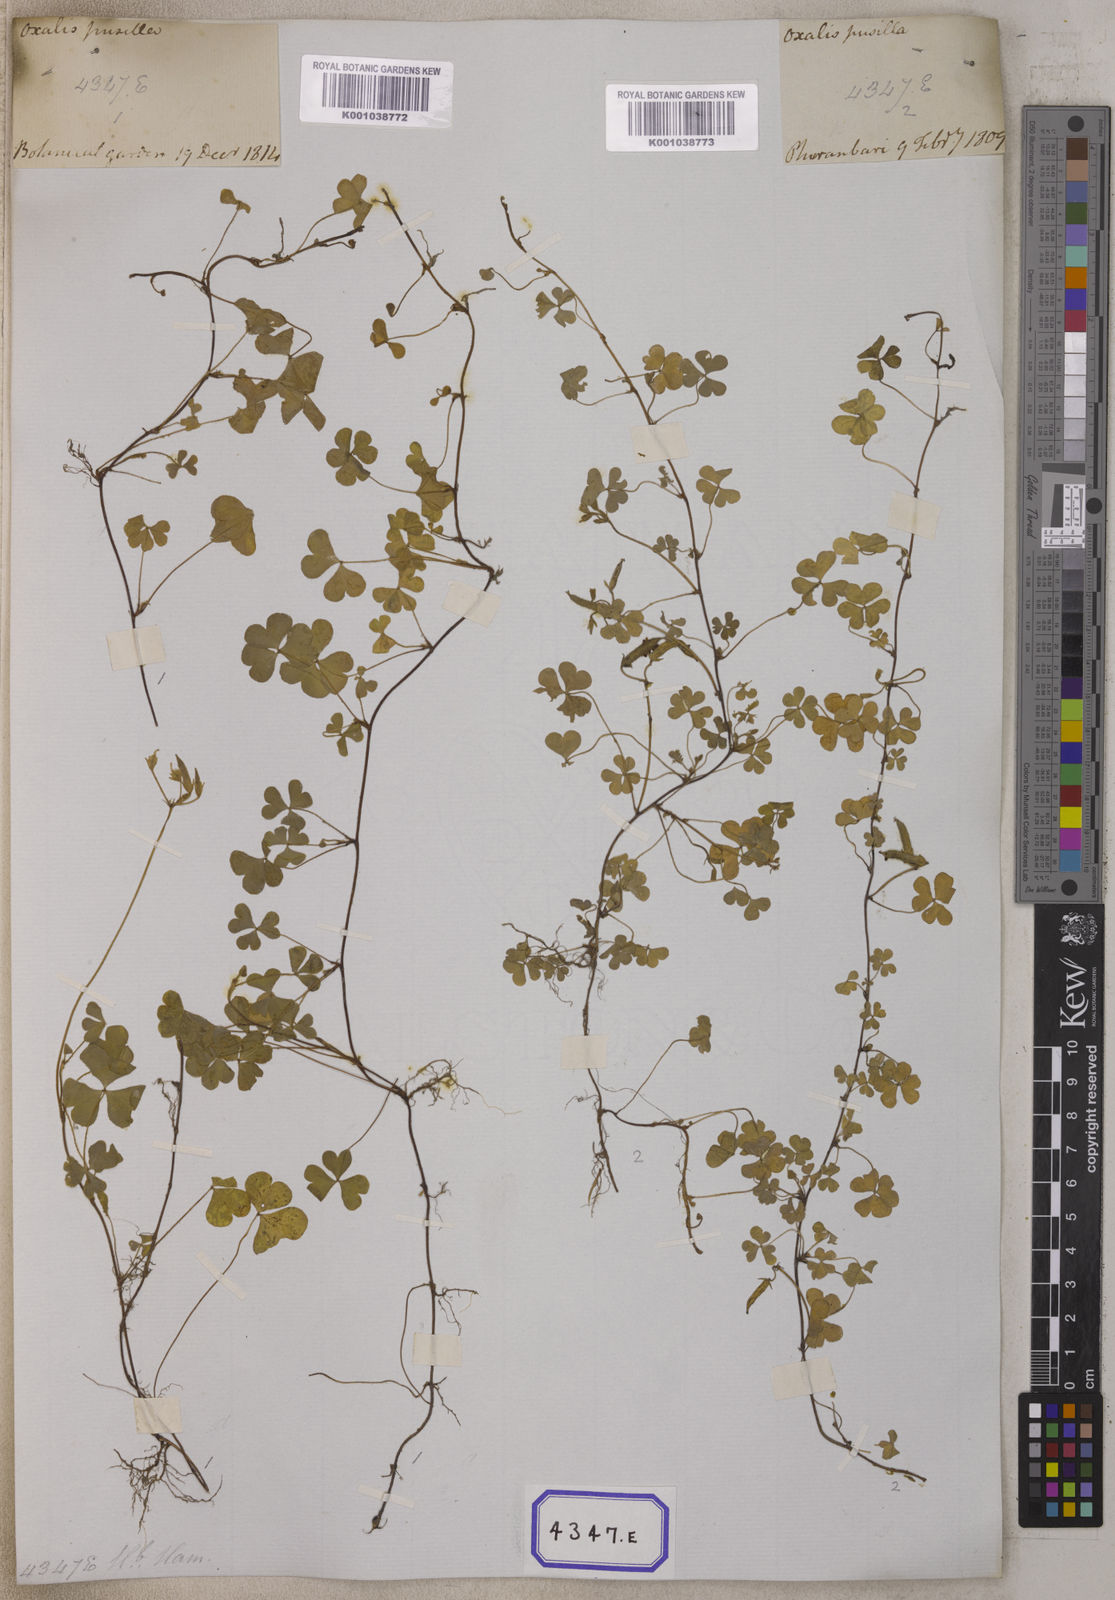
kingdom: Plantae
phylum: Tracheophyta
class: Magnoliopsida
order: Oxalidales
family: Oxalidaceae
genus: Oxalis
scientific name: Oxalis corniculata
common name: Procumbent yellow-sorrel
